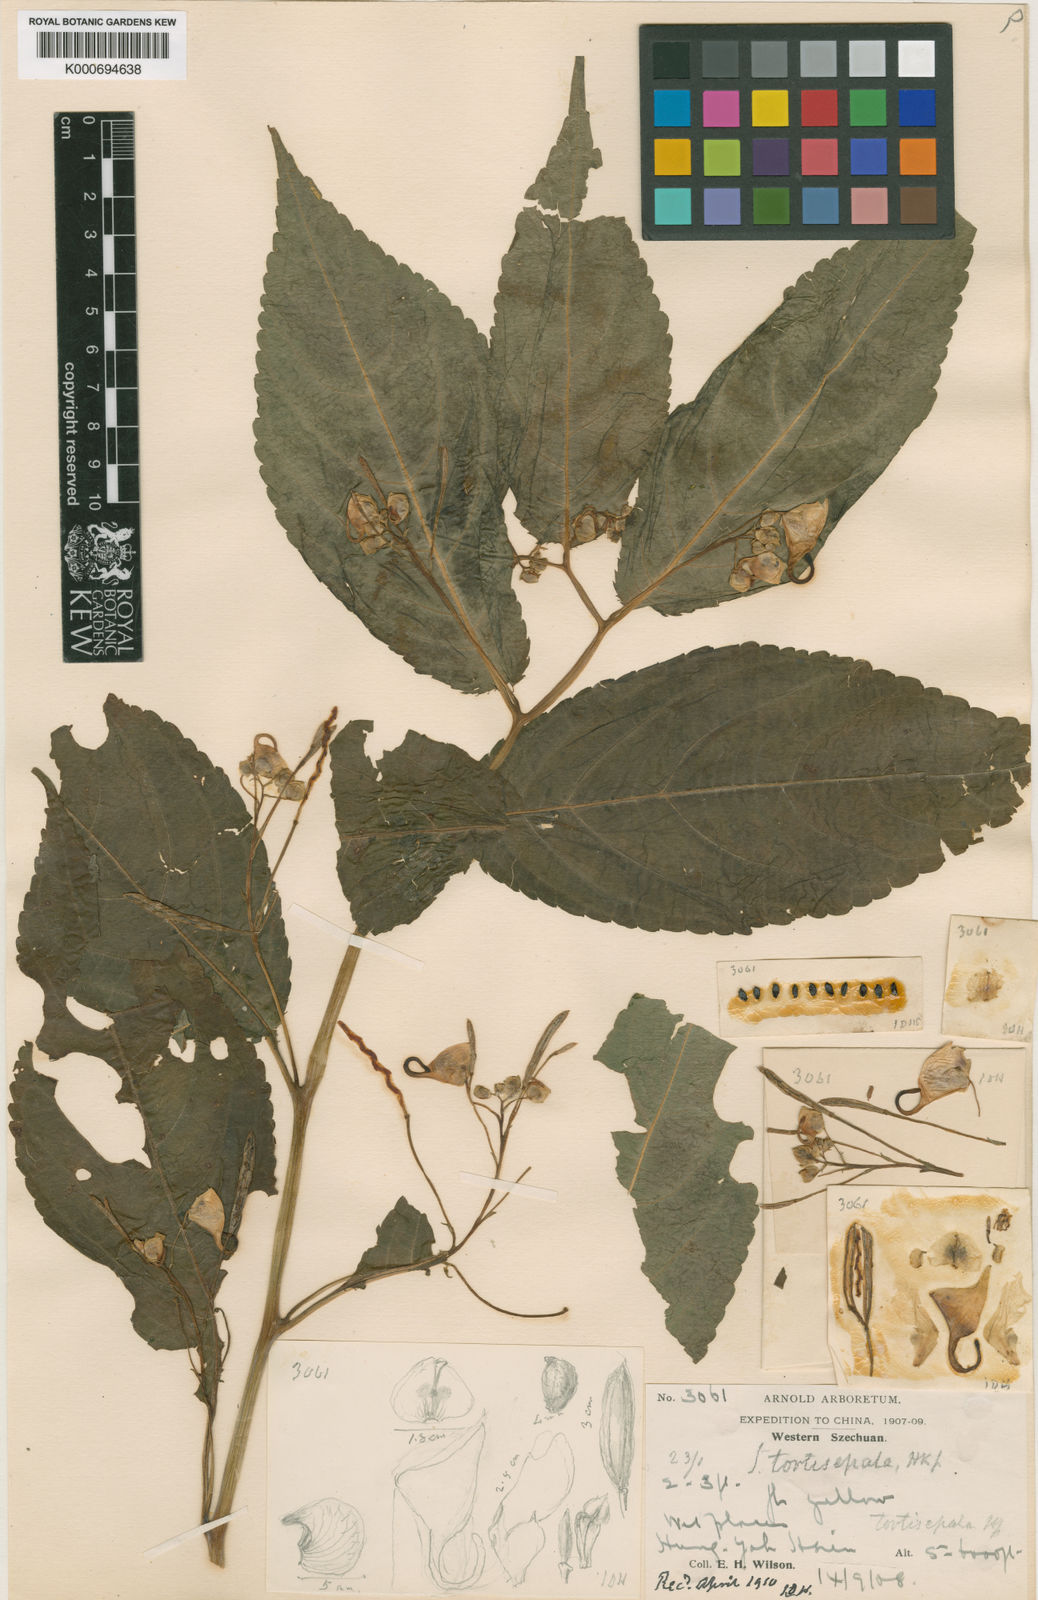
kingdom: Plantae
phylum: Tracheophyta
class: Magnoliopsida
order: Ericales
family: Balsaminaceae
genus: Impatiens
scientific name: Impatiens tortisepala
